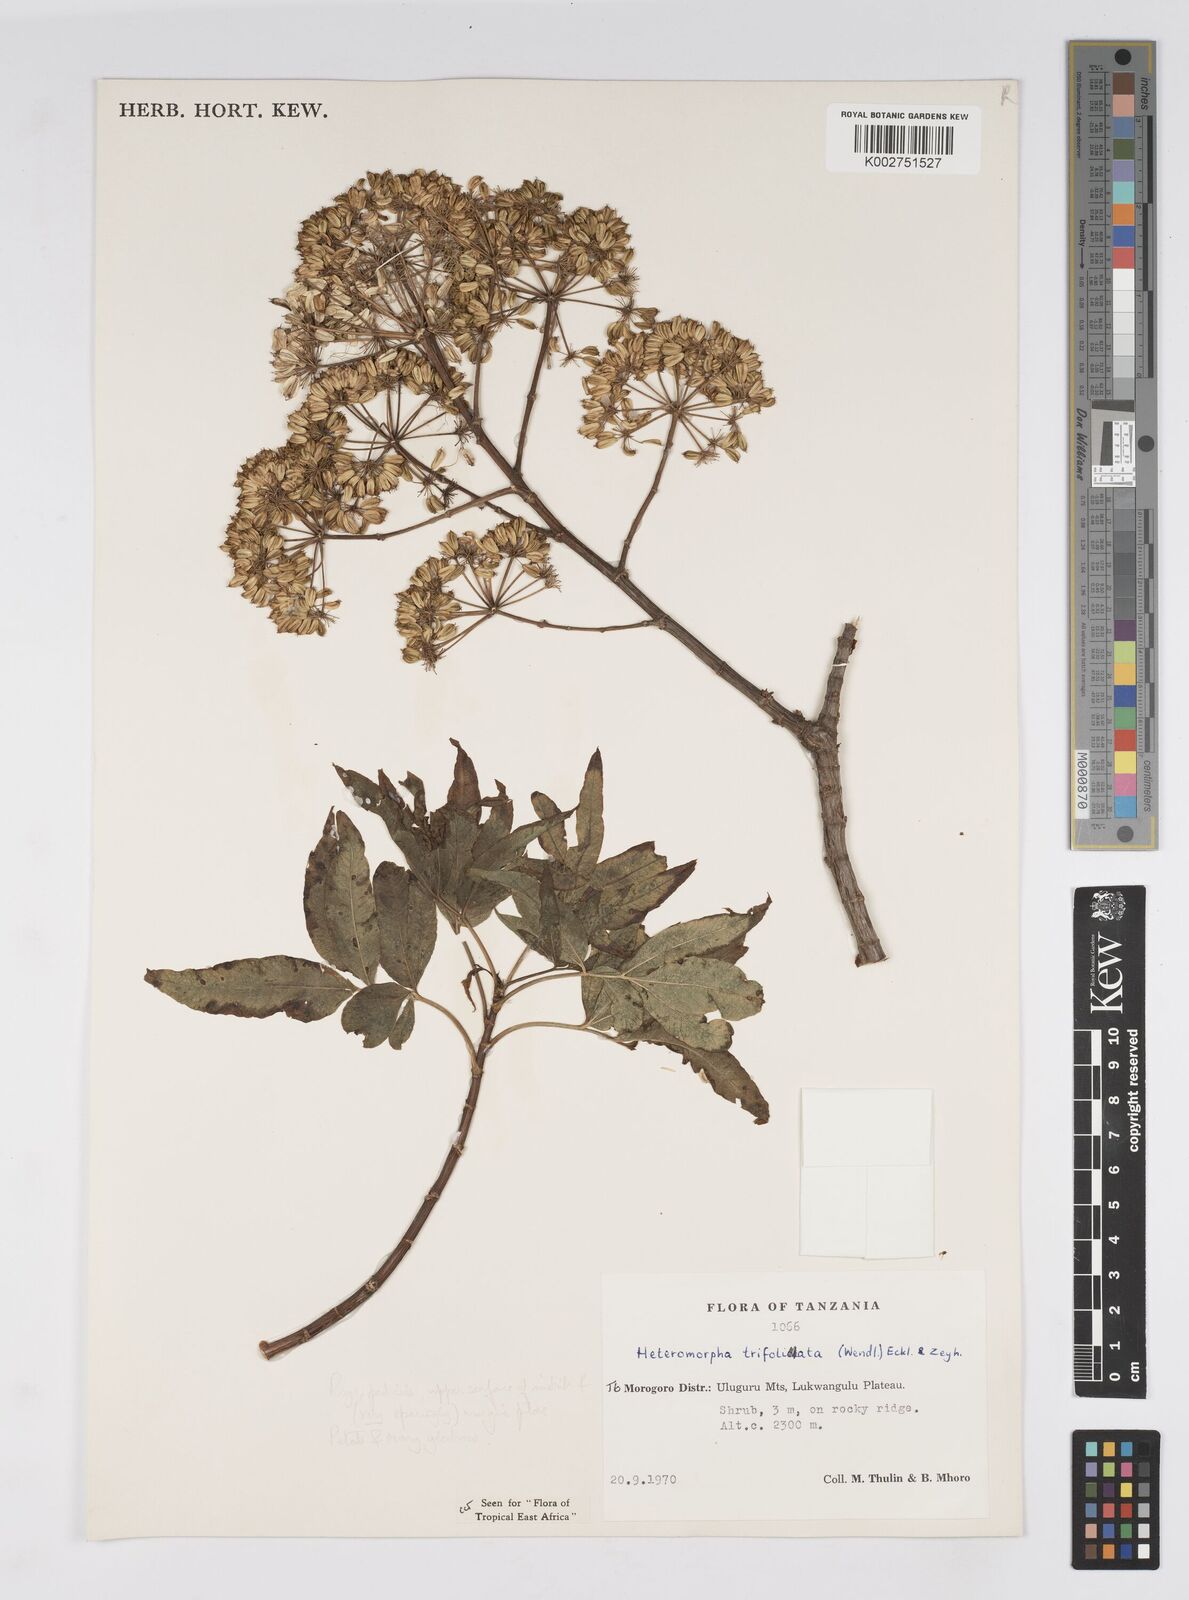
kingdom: Plantae
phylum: Tracheophyta
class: Magnoliopsida
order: Apiales
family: Apiaceae
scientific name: Apiaceae
